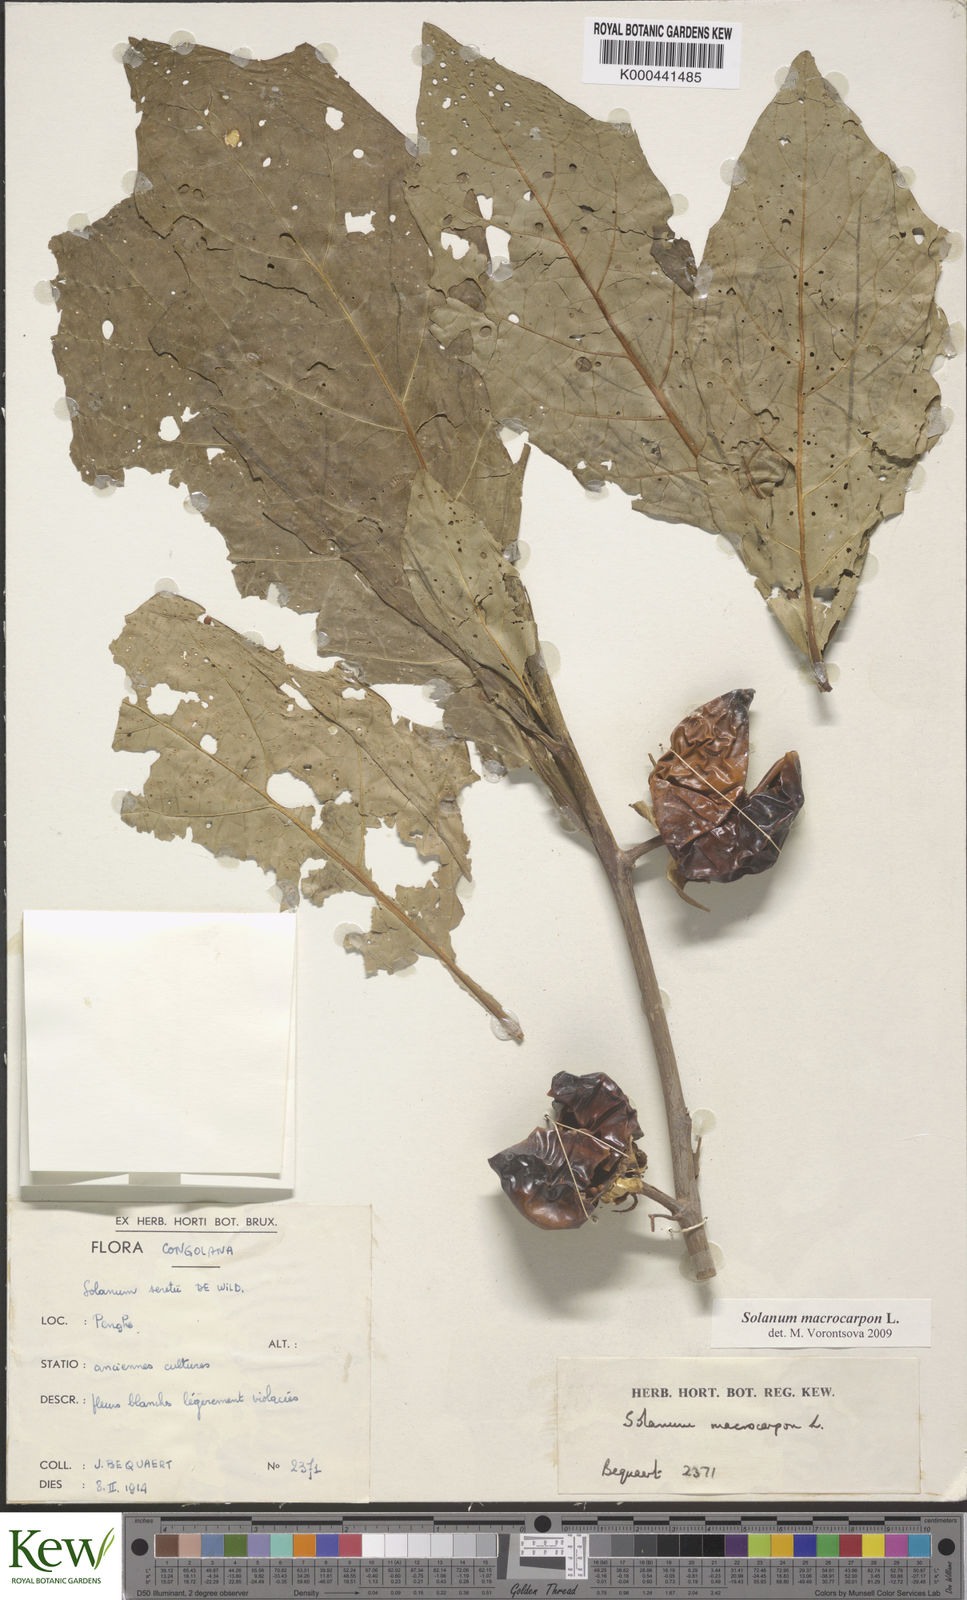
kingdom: Plantae
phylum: Tracheophyta
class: Magnoliopsida
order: Solanales
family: Solanaceae
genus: Solanum
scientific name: Solanum macrocarpon
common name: African eggplant
